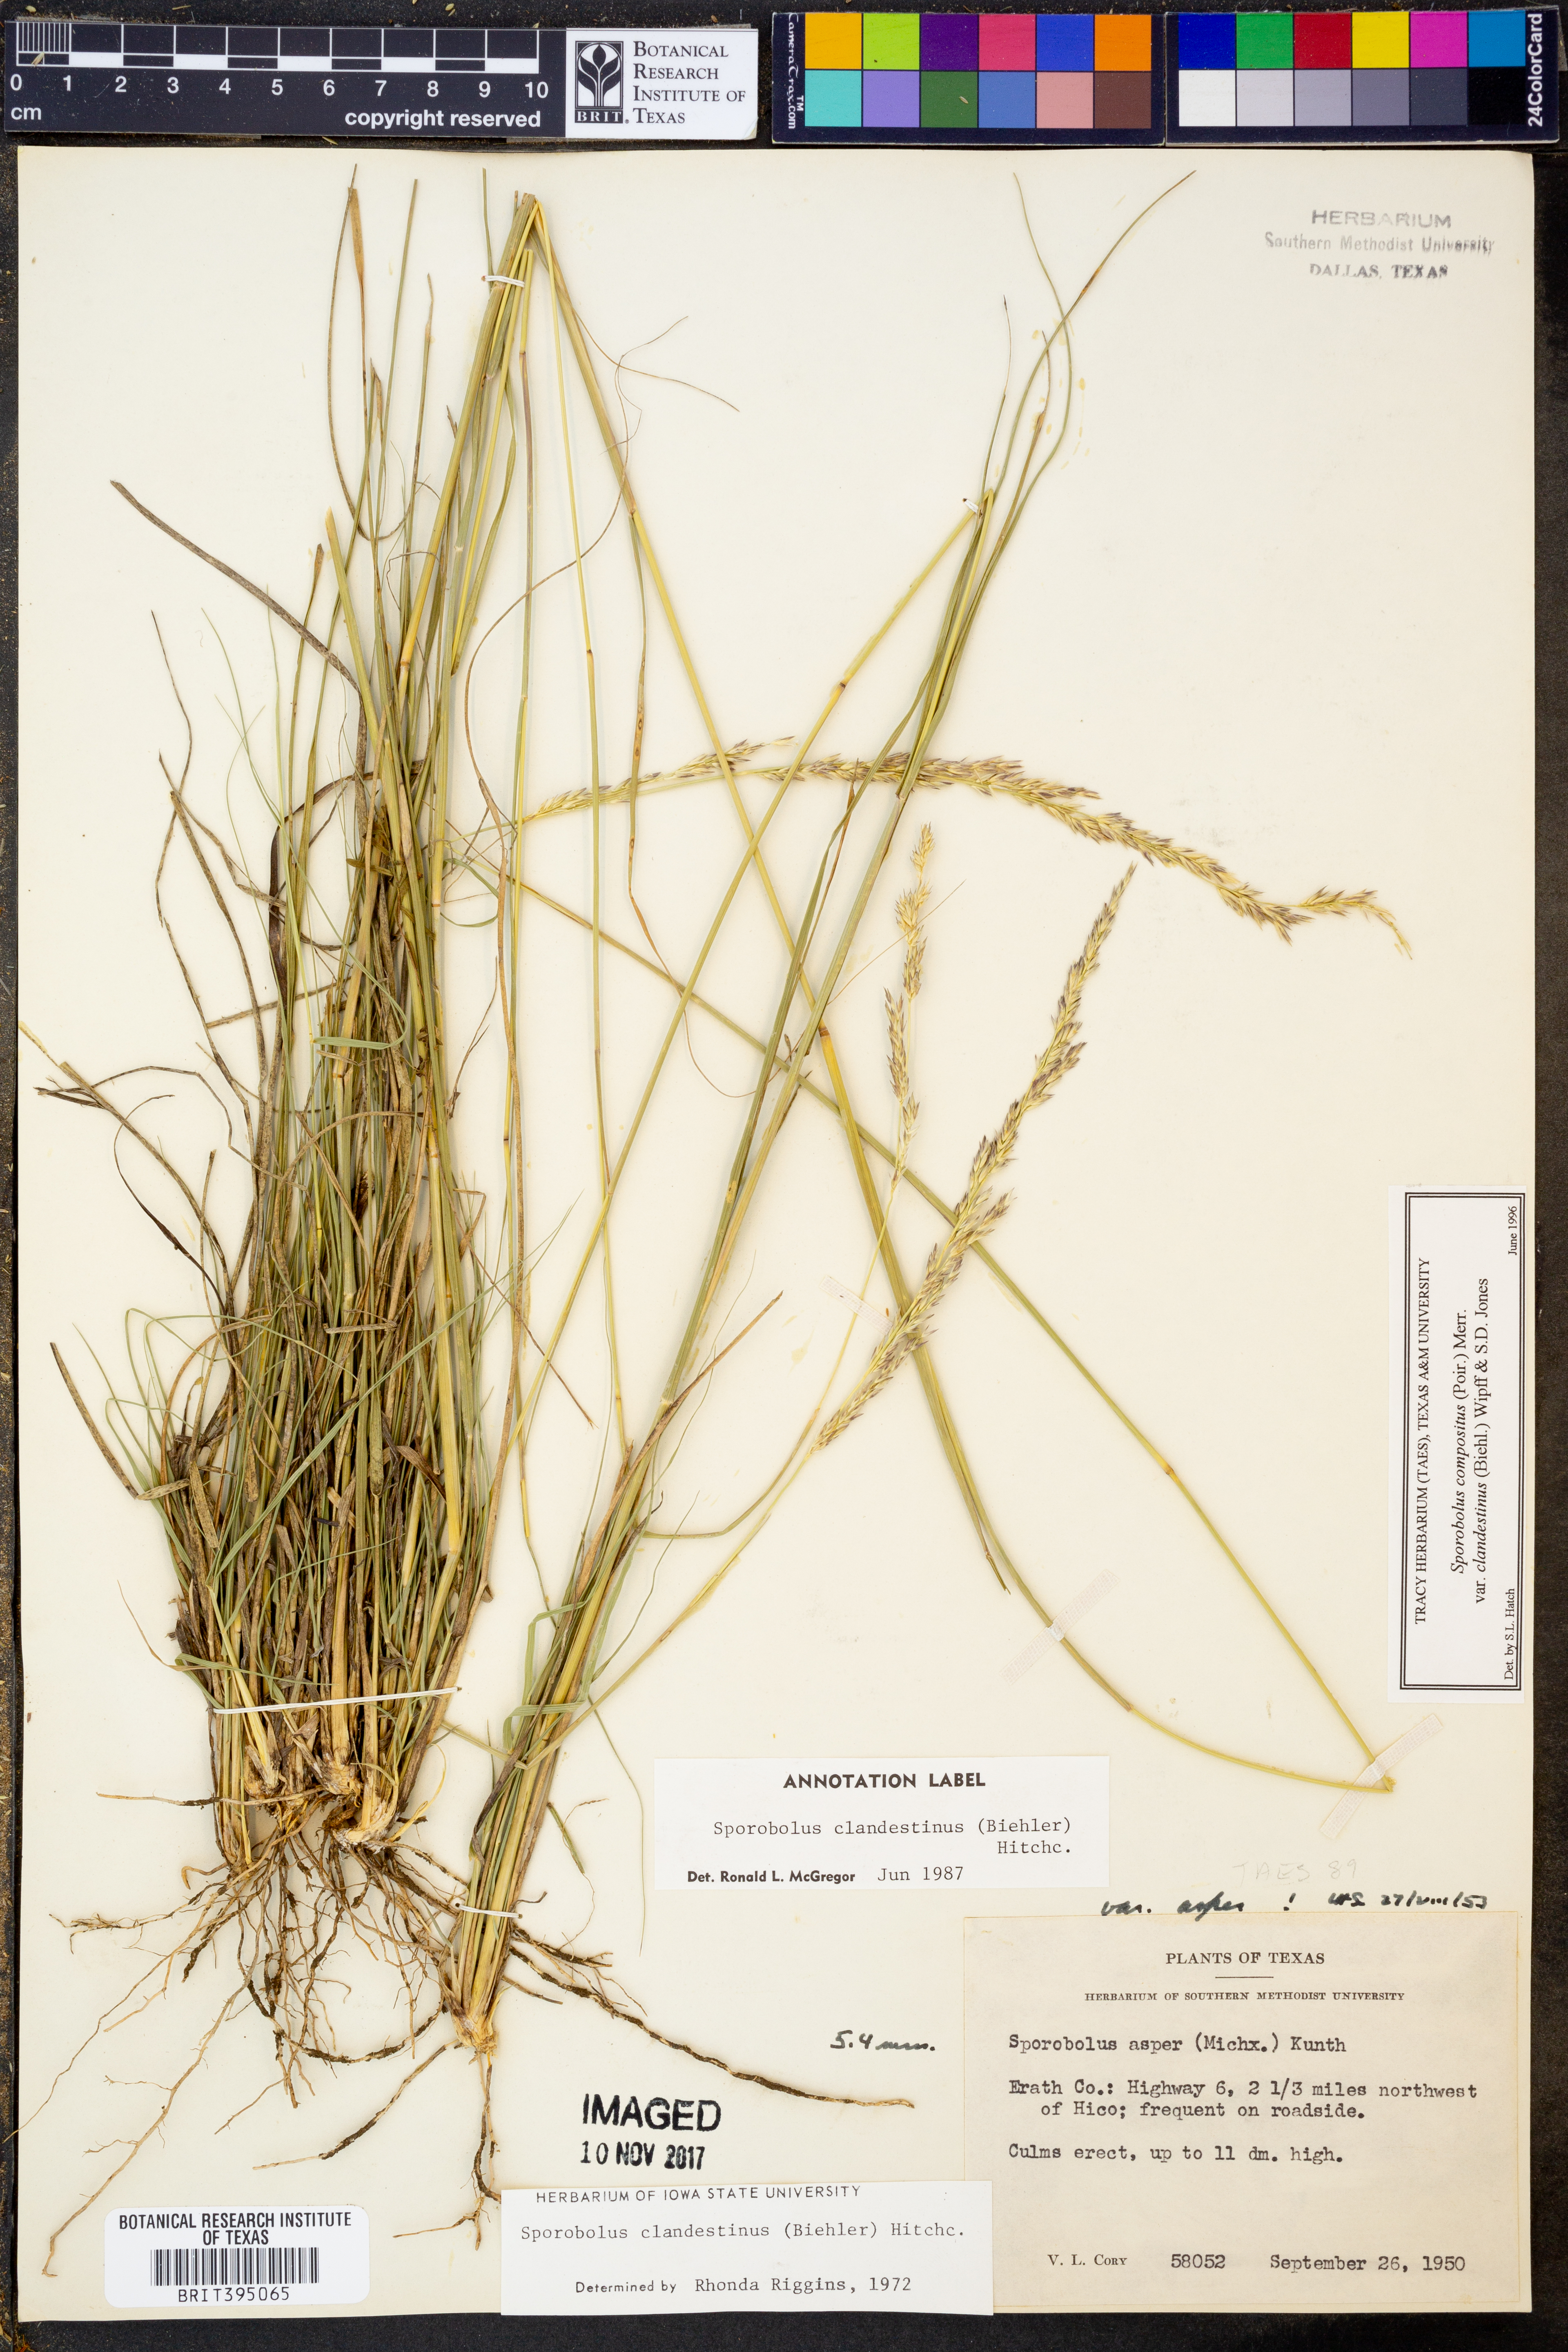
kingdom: Plantae
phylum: Tracheophyta
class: Liliopsida
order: Poales
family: Poaceae
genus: Sporobolus
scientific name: Sporobolus clandestinus
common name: Hidden dropseed
